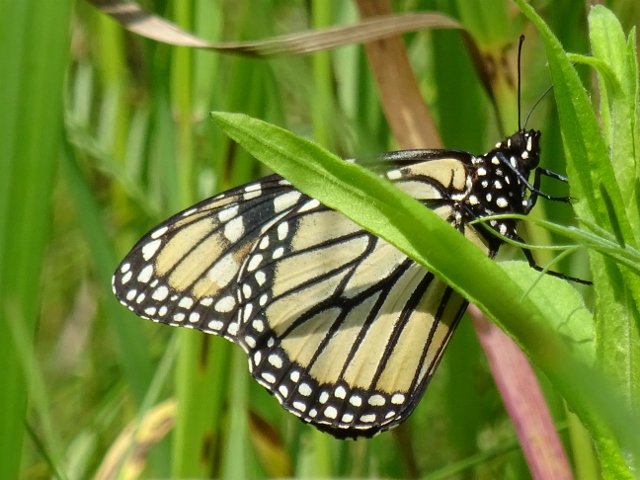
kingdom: Animalia
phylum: Arthropoda
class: Insecta
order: Lepidoptera
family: Nymphalidae
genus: Danaus
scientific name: Danaus plexippus
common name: Monarch
